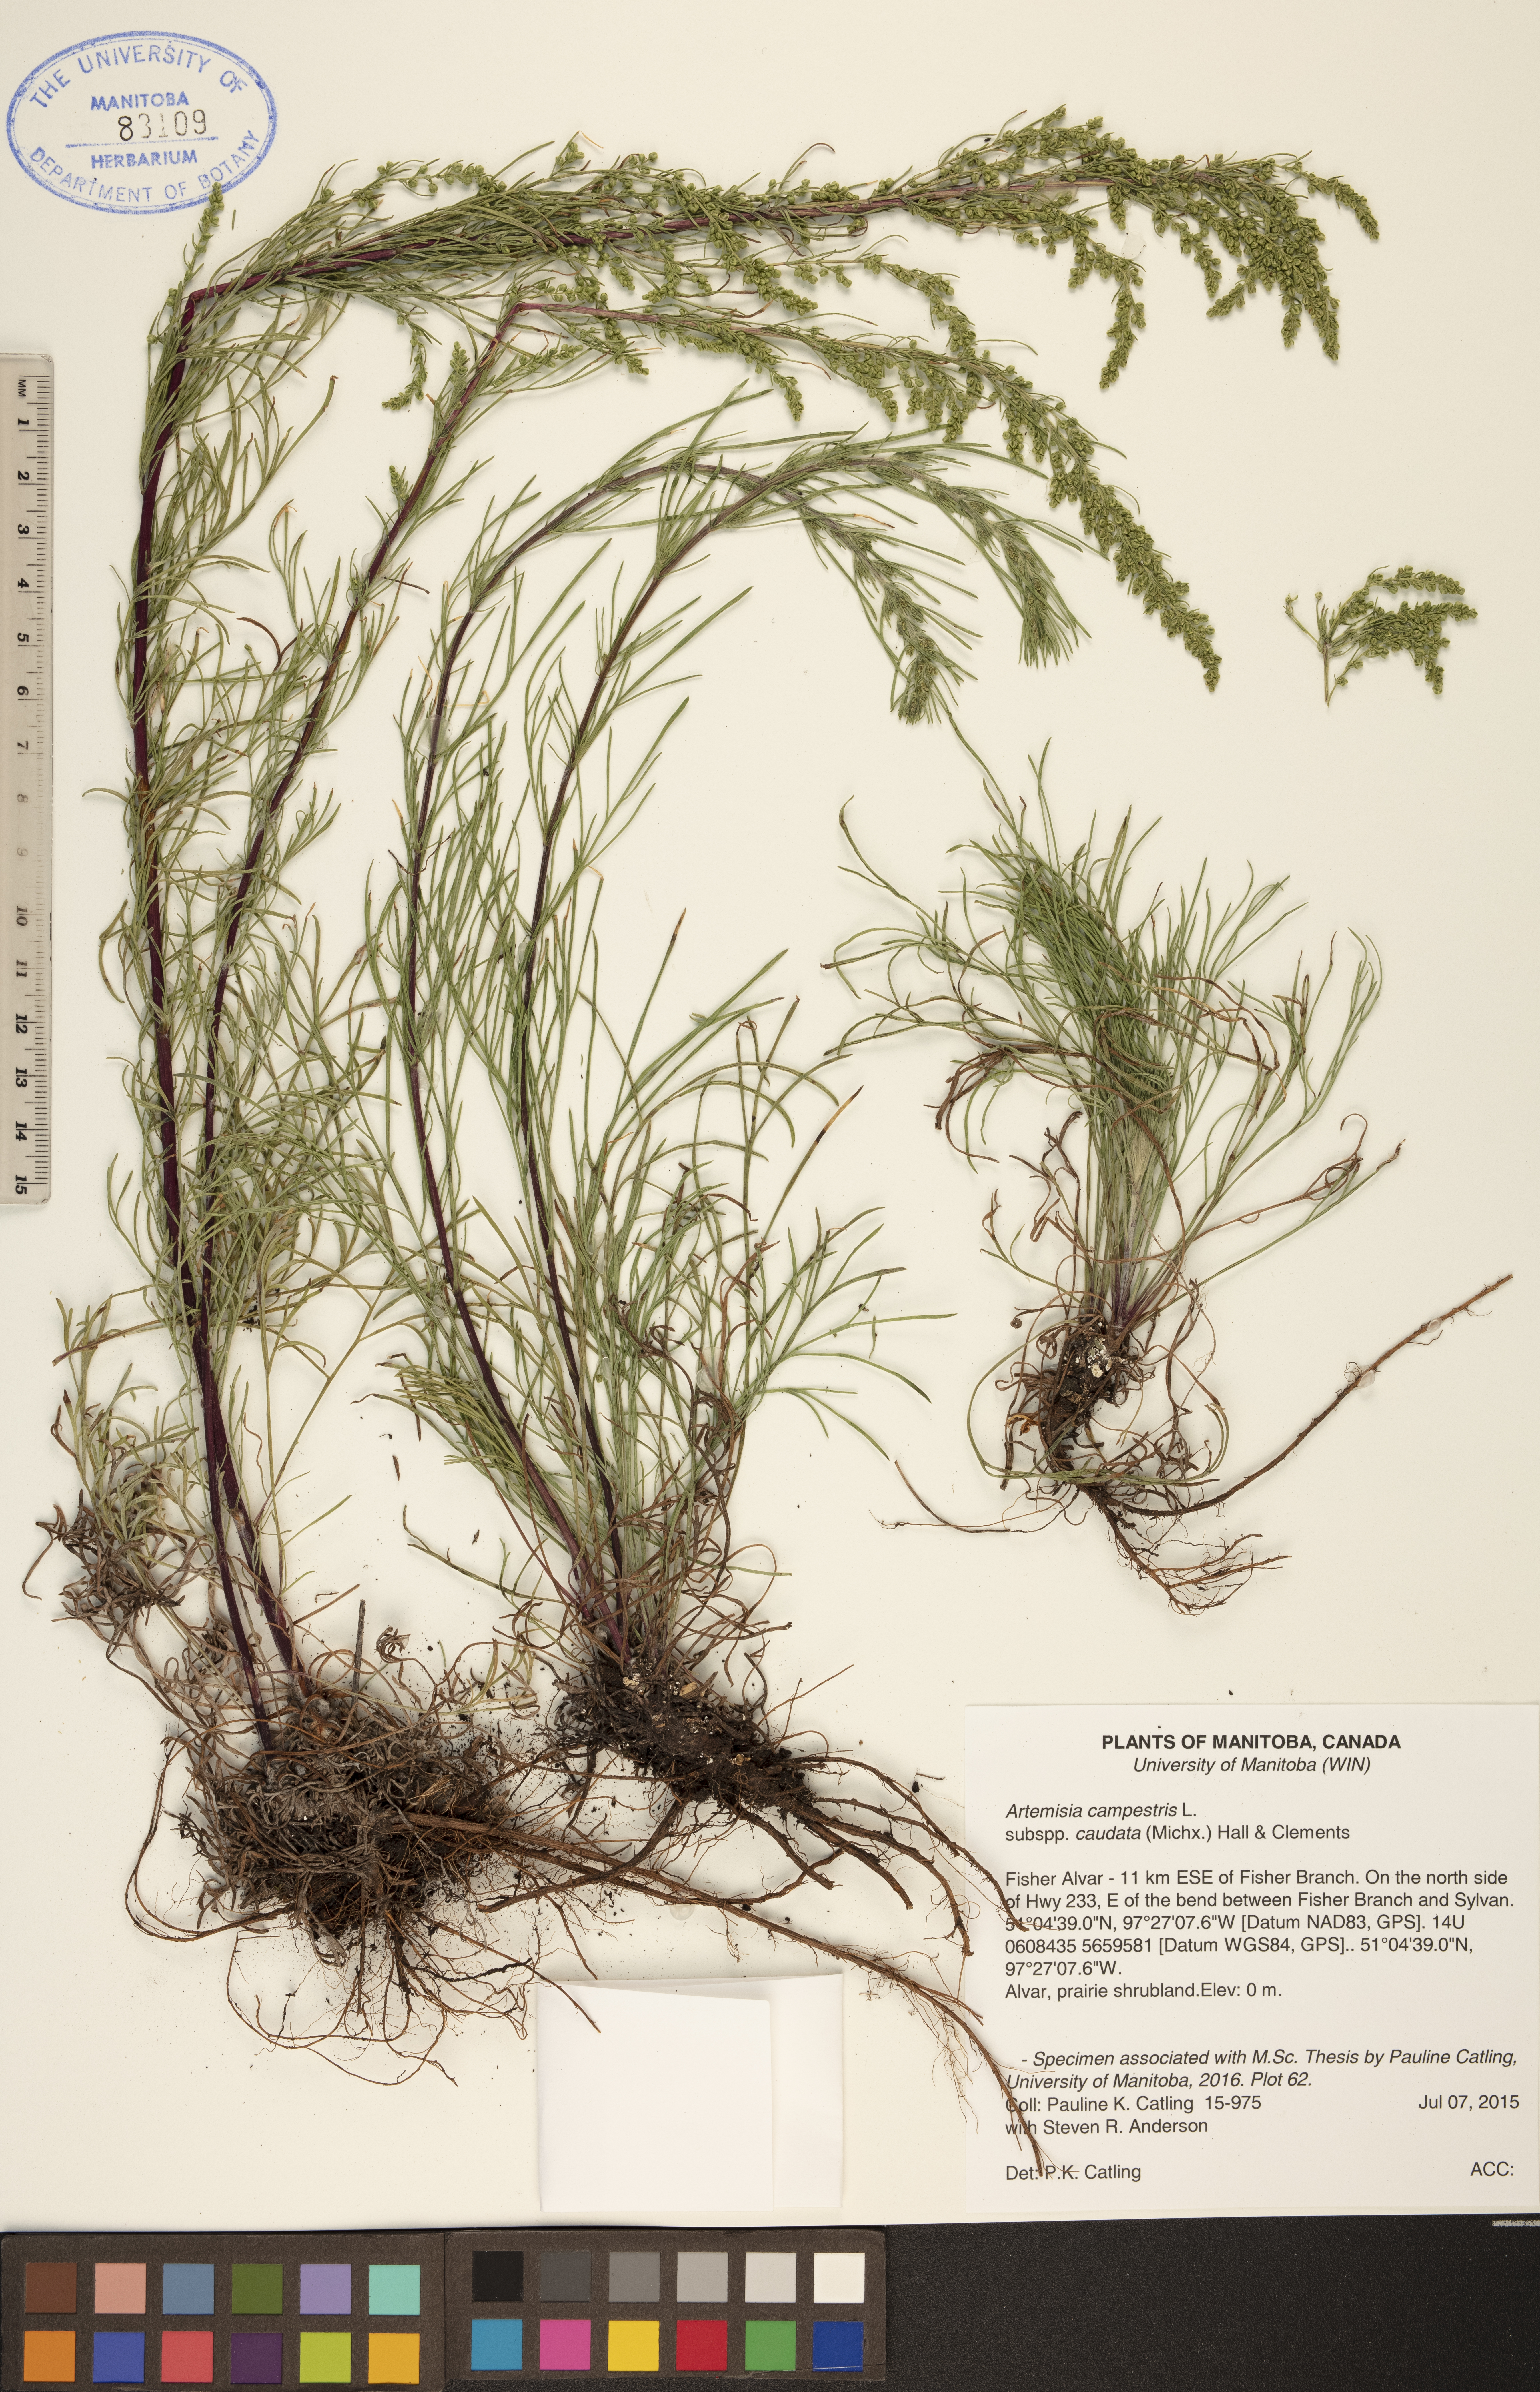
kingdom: Plantae
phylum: Tracheophyta
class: Magnoliopsida
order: Asterales
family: Asteraceae
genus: Artemisia
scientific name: Artemisia campestris
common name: Field wormwood
